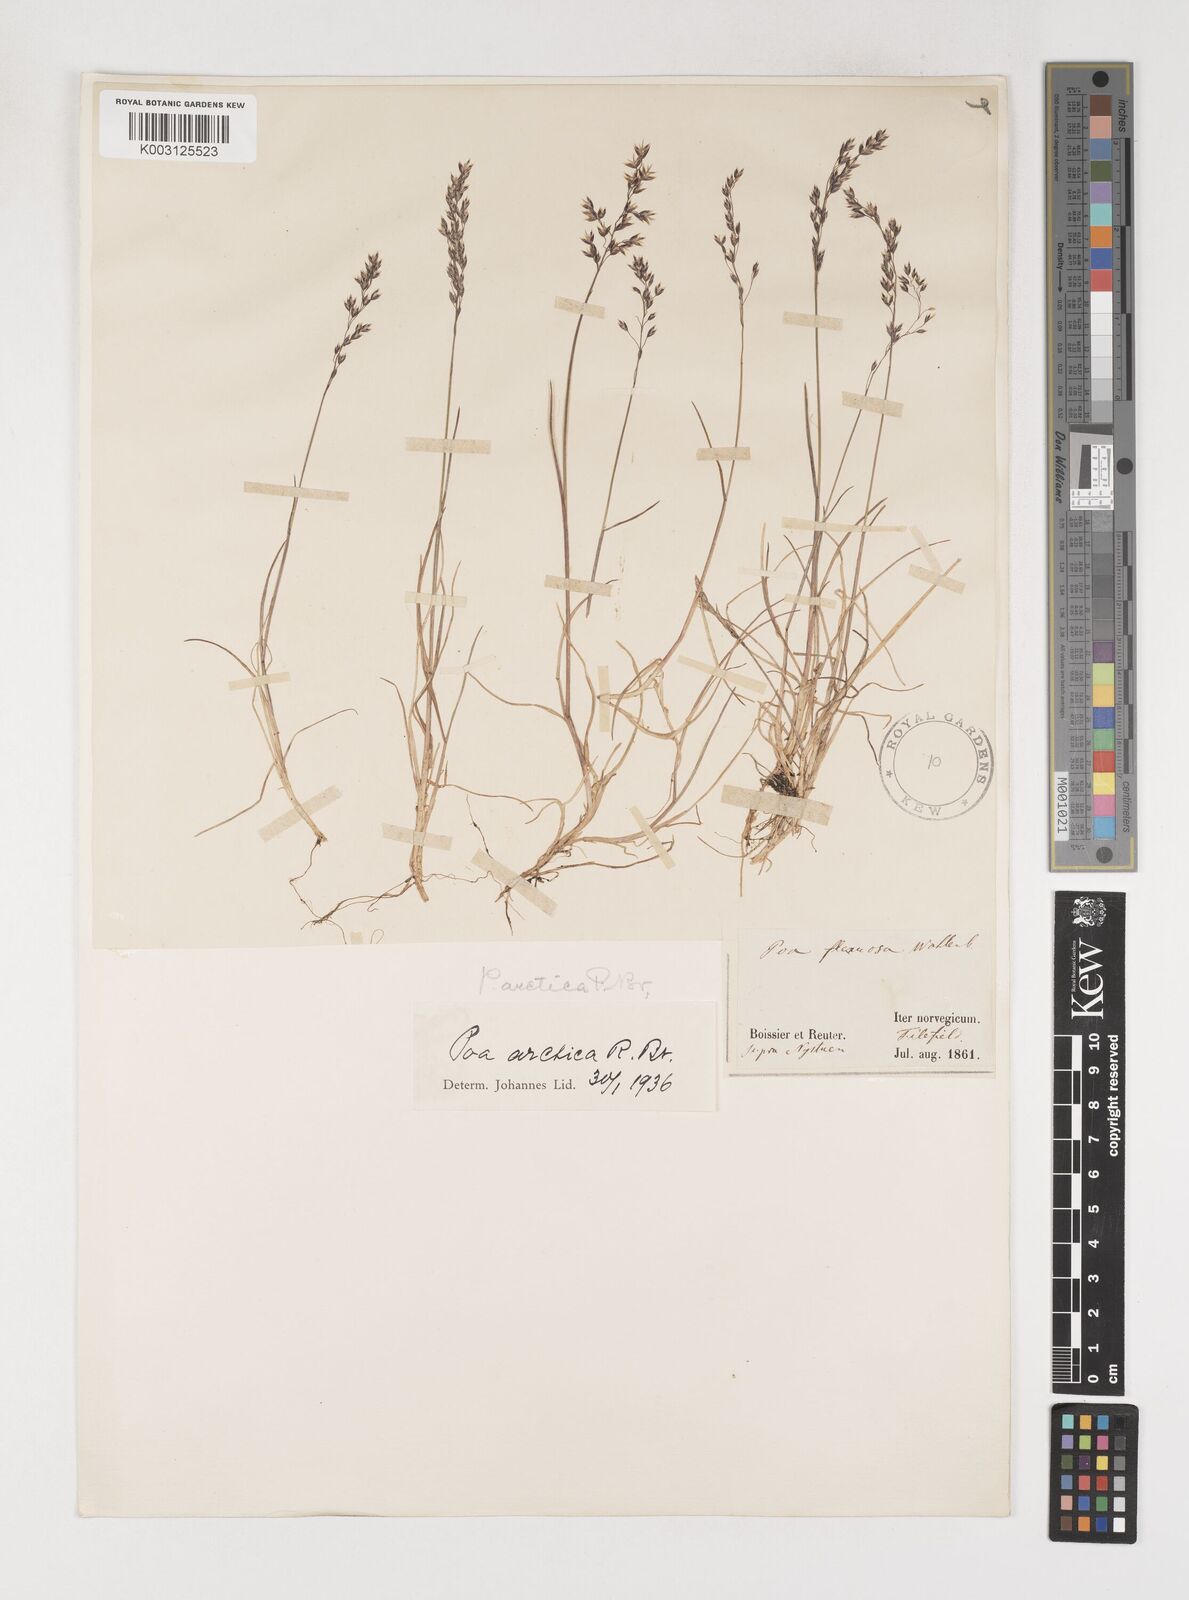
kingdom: Plantae
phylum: Tracheophyta
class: Liliopsida
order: Poales
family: Poaceae
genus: Poa
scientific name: Poa arctica
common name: Arctic bluegrass
